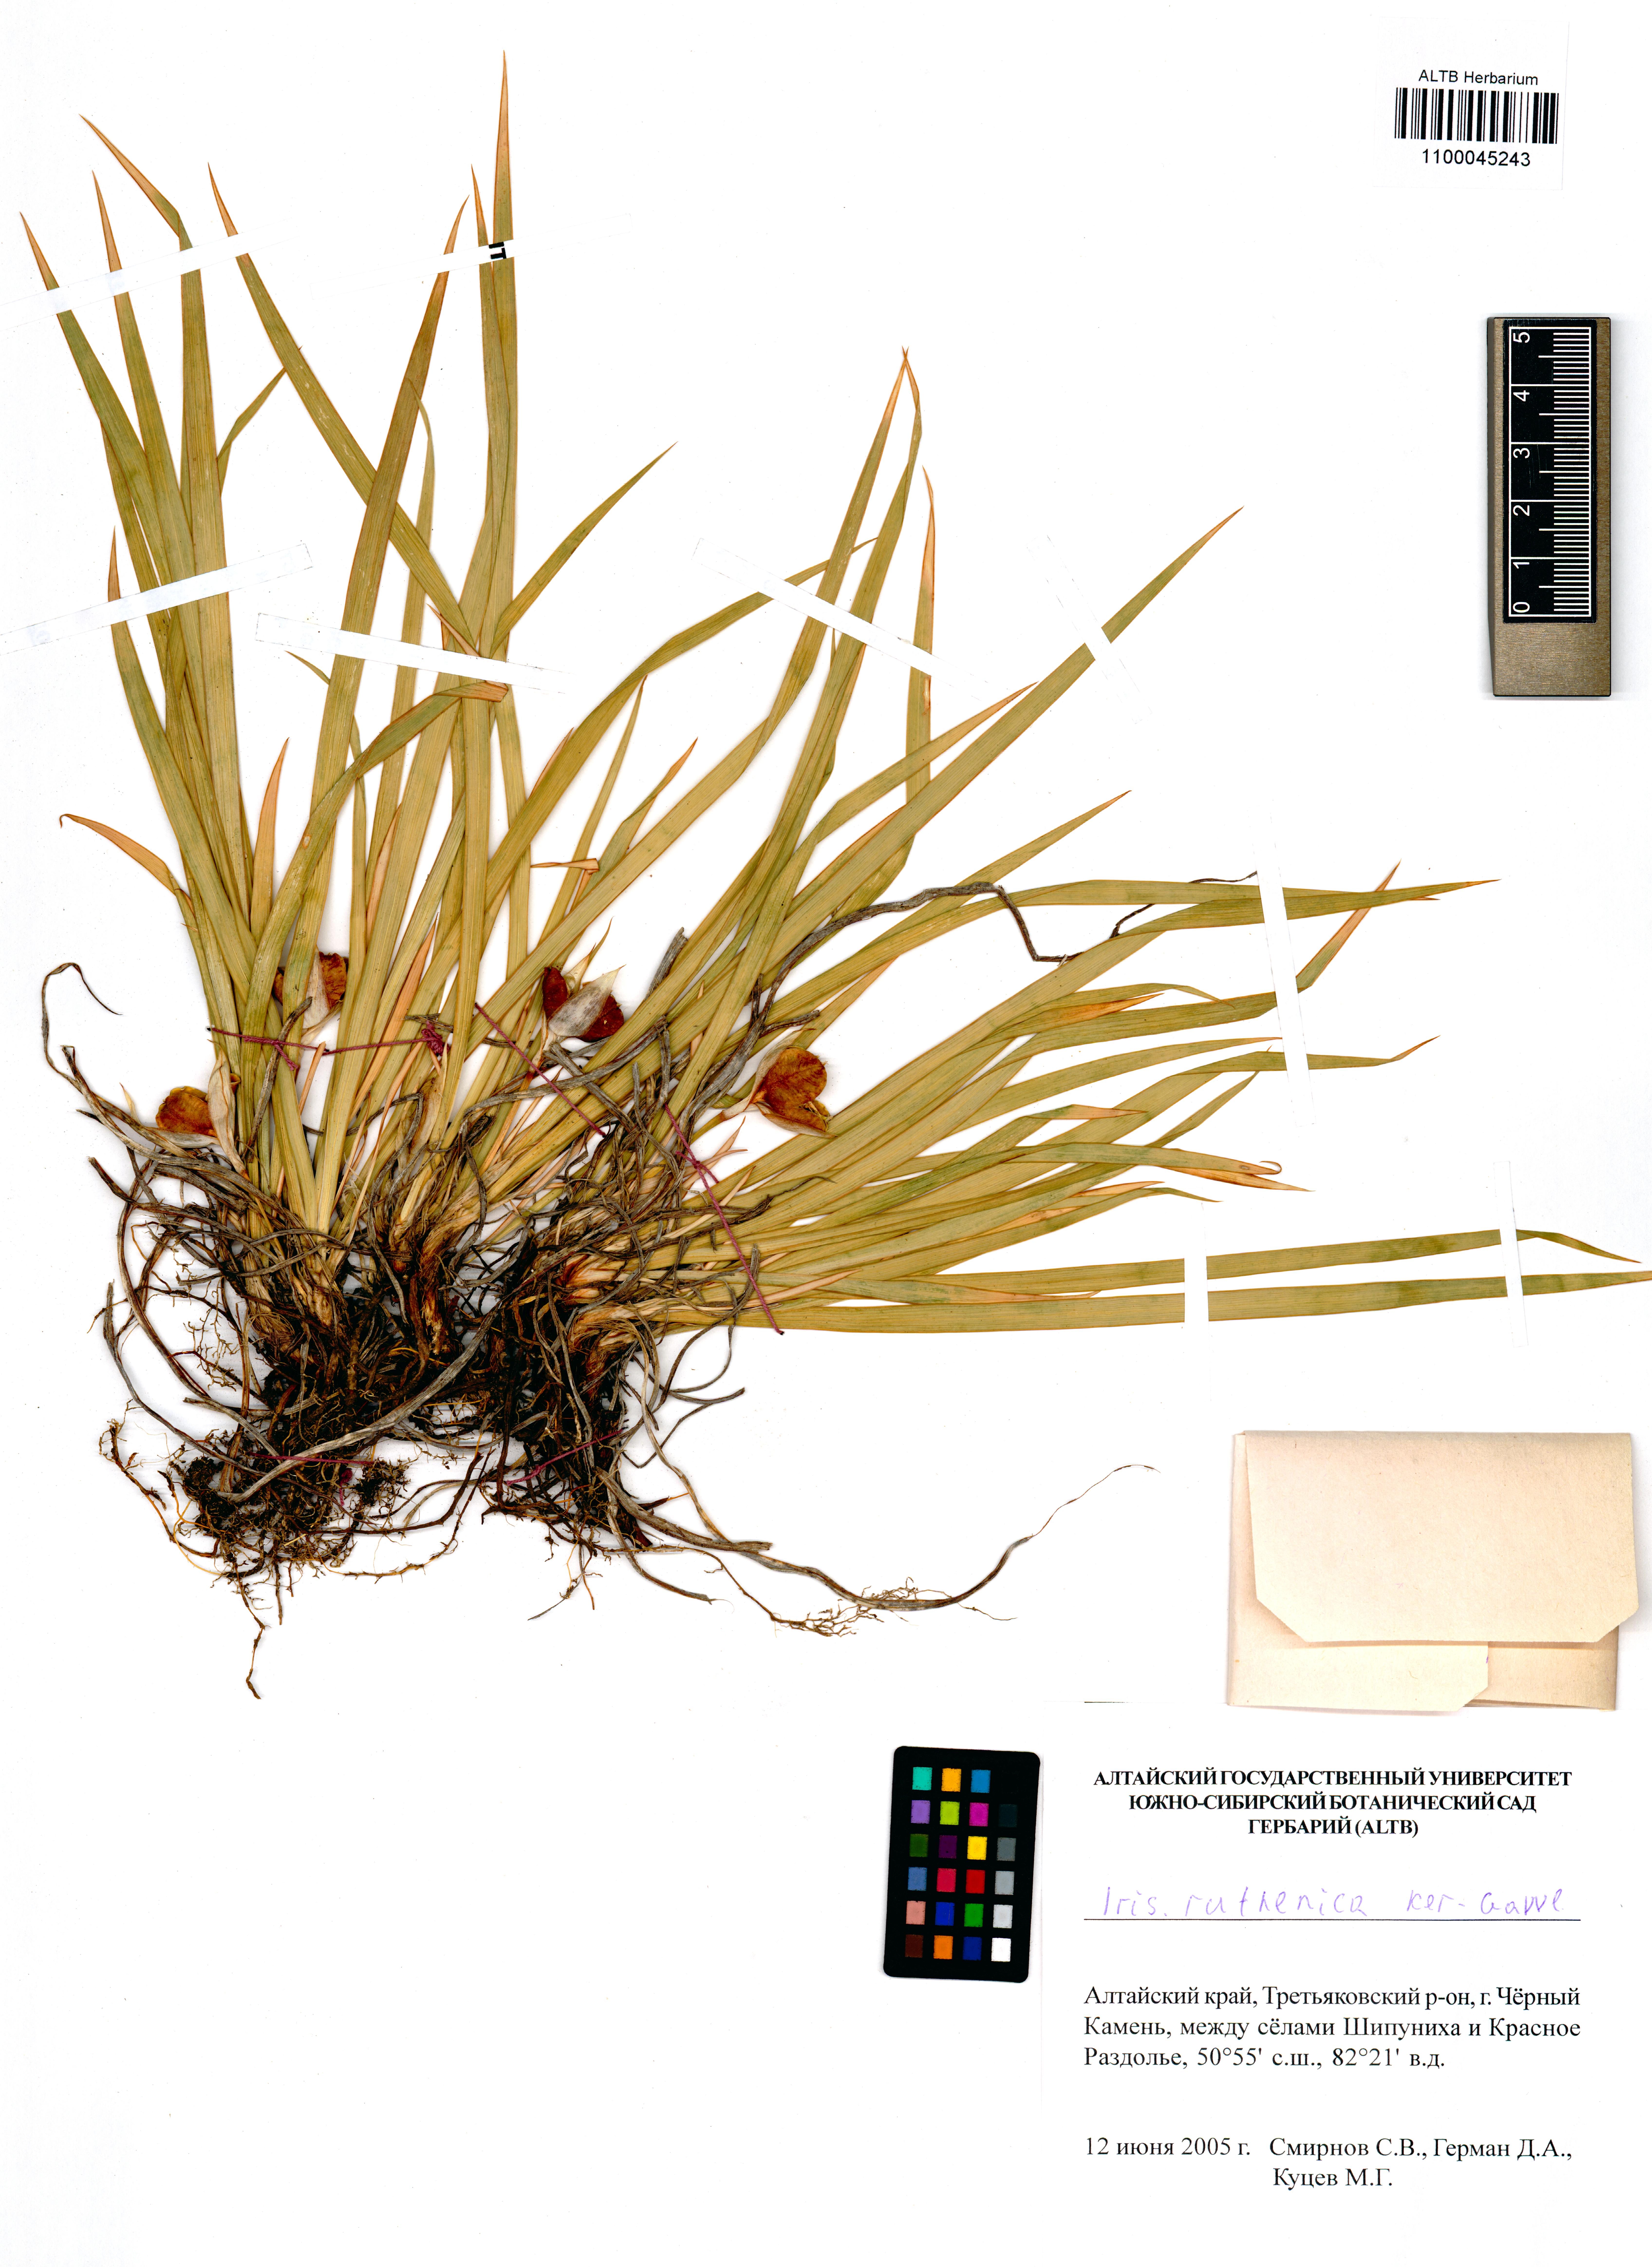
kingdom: Plantae
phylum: Tracheophyta
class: Liliopsida
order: Asparagales
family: Iridaceae
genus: Iris
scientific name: Iris ruthenica
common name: Purple-bract iris
